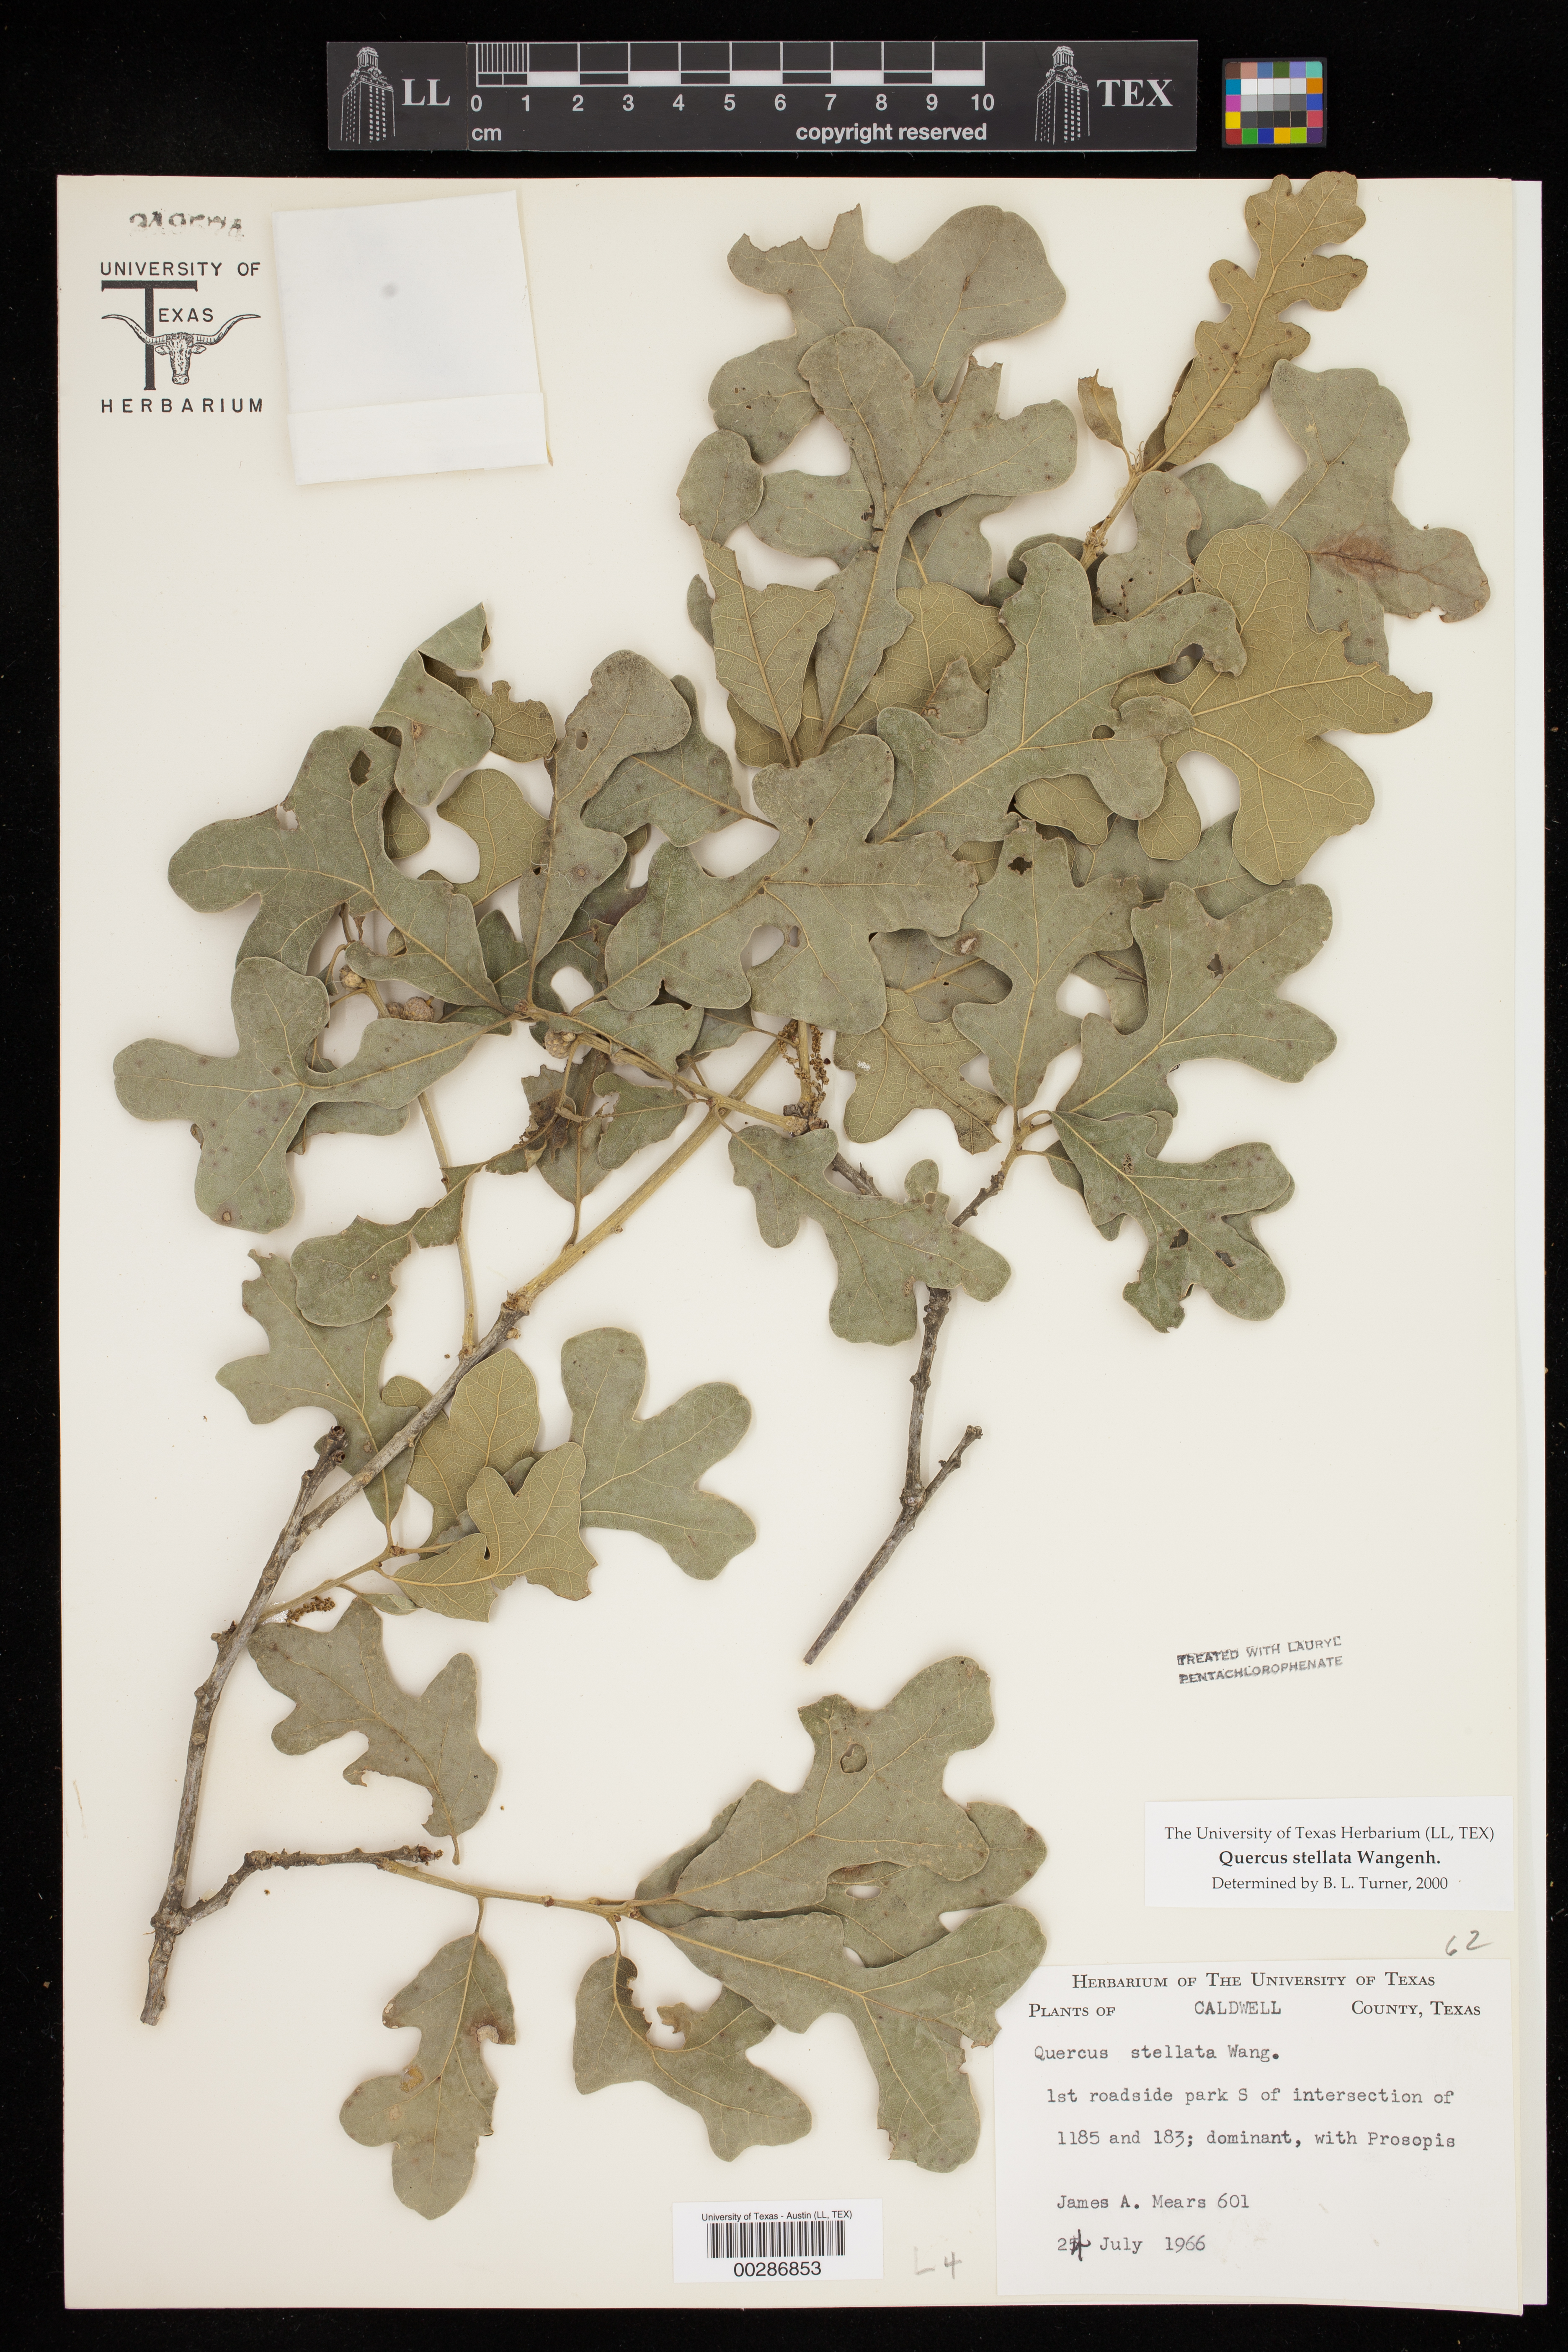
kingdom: Plantae
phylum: Tracheophyta
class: Magnoliopsida
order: Fagales
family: Fagaceae
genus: Quercus
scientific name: Quercus stellata
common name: Post oak
